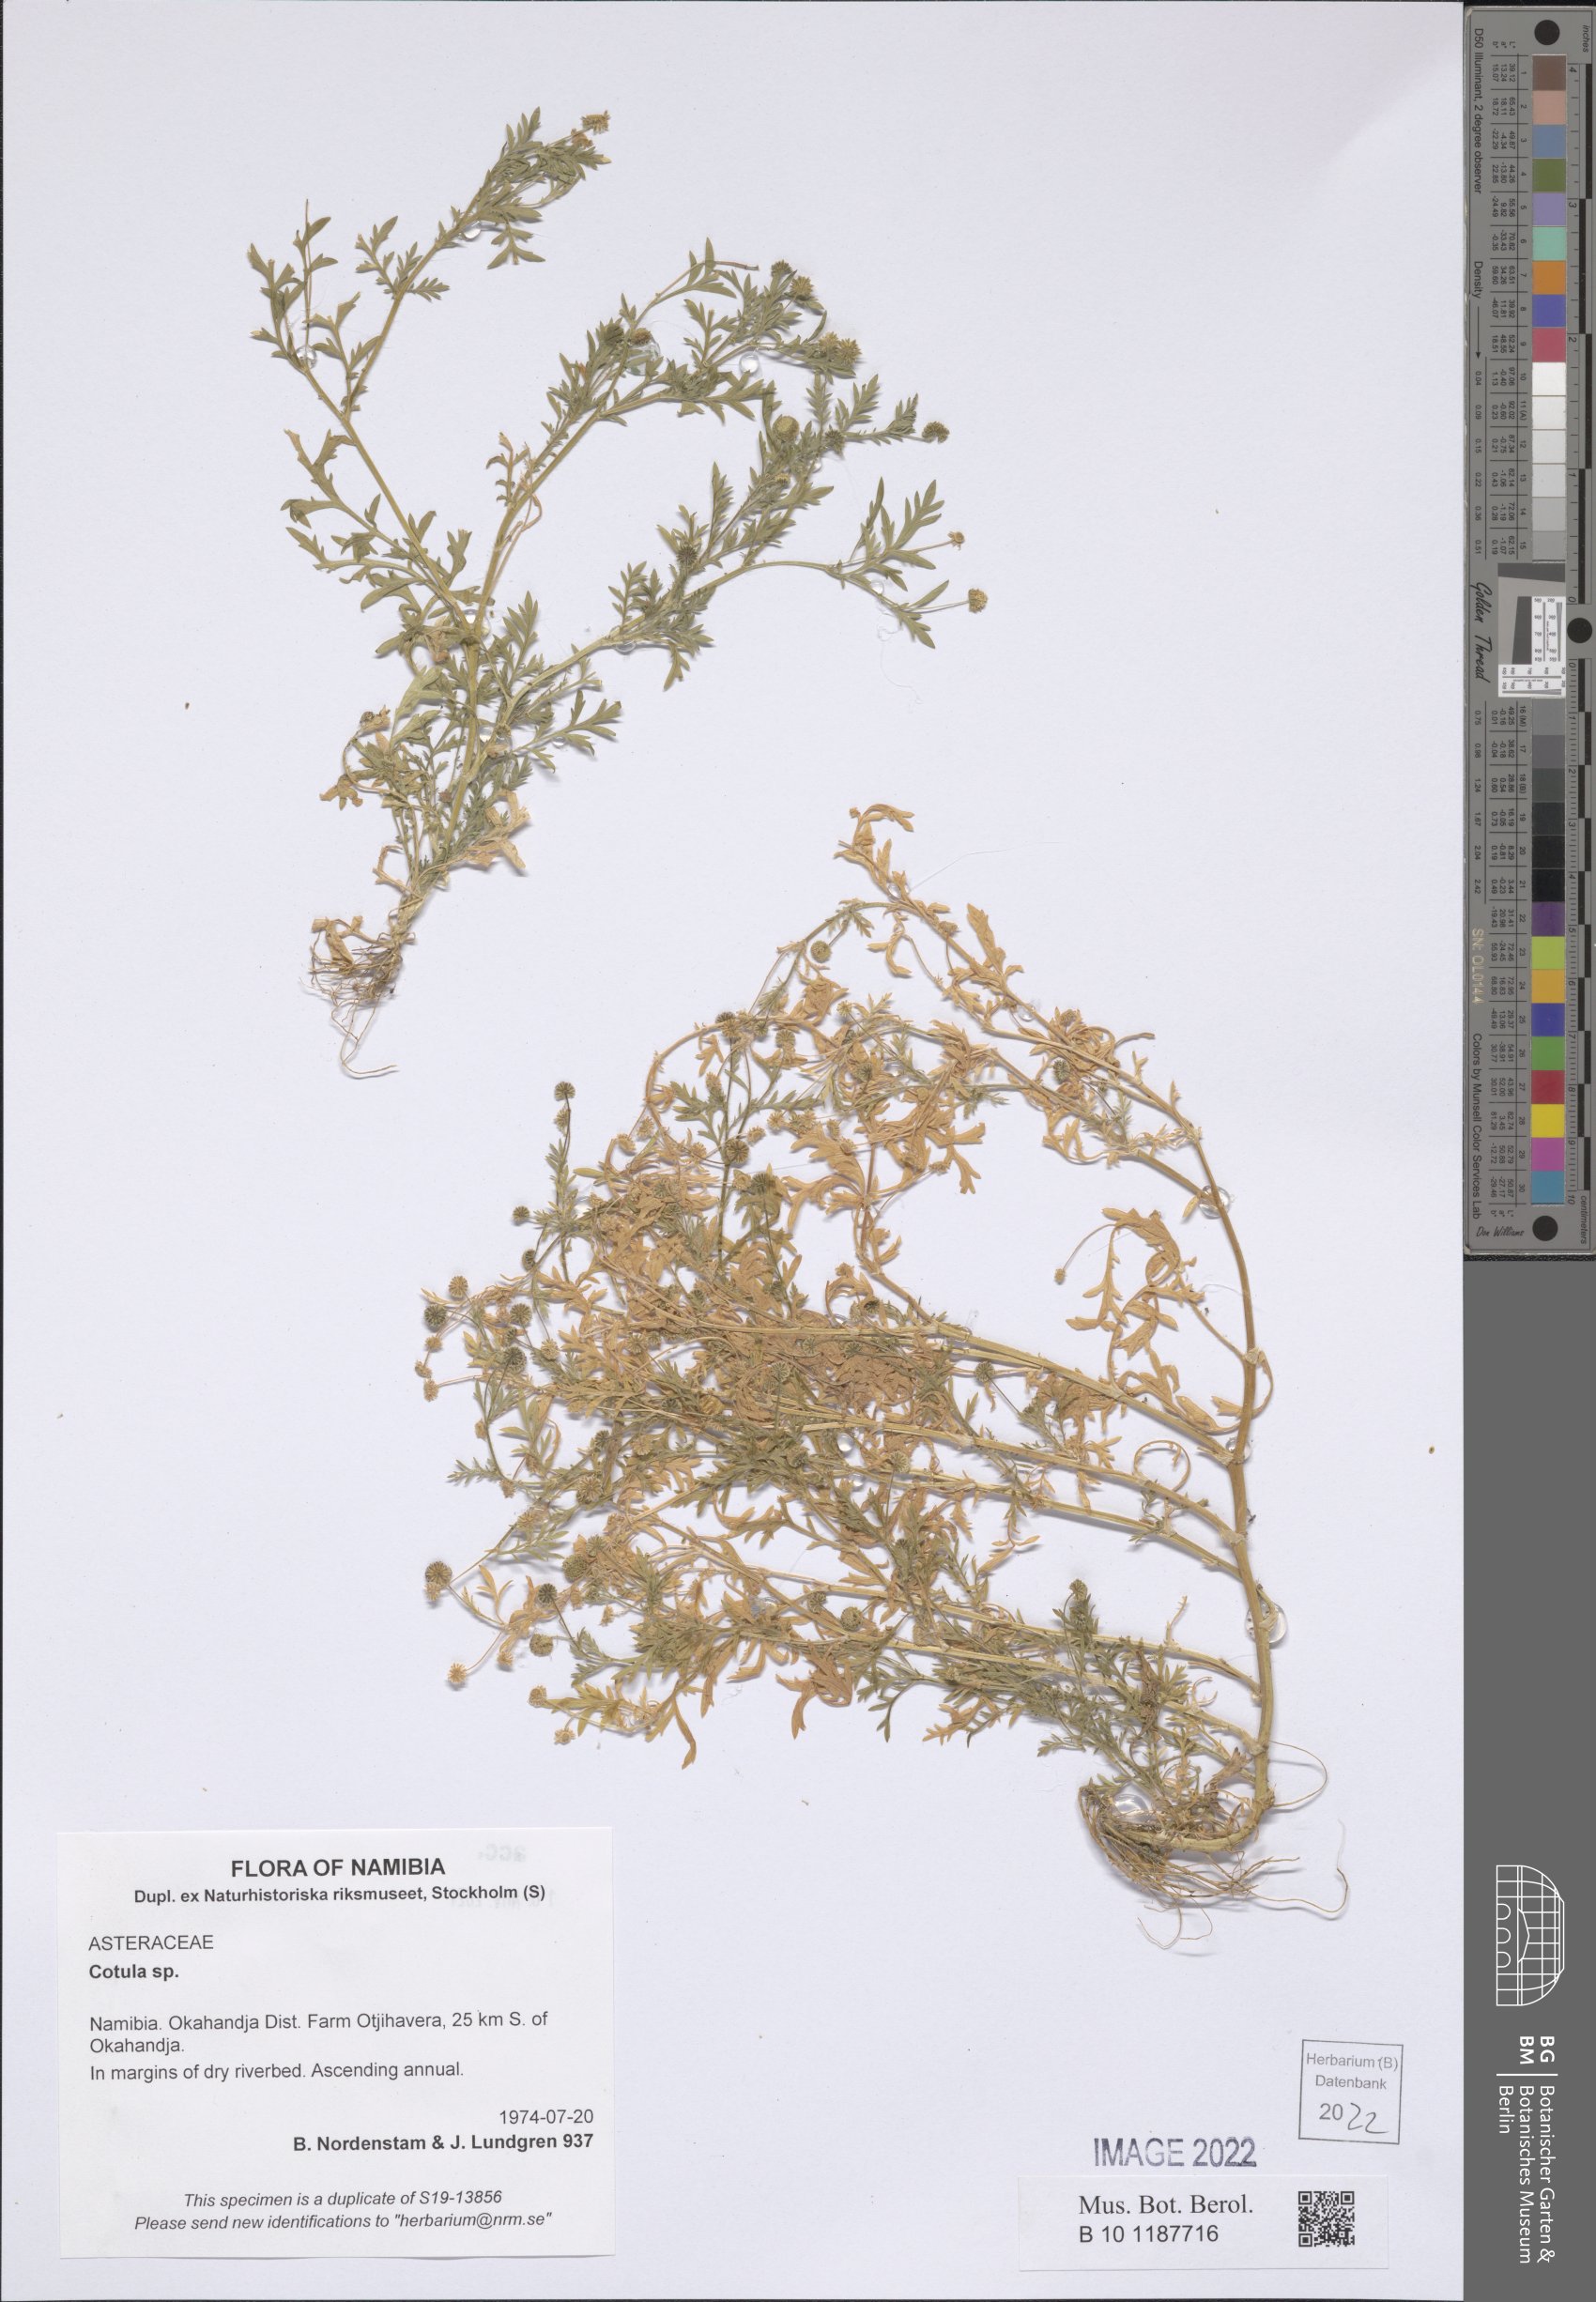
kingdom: Plantae
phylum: Tracheophyta
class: Magnoliopsida
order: Asterales
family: Asteraceae
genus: Cotula
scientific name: Cotula
